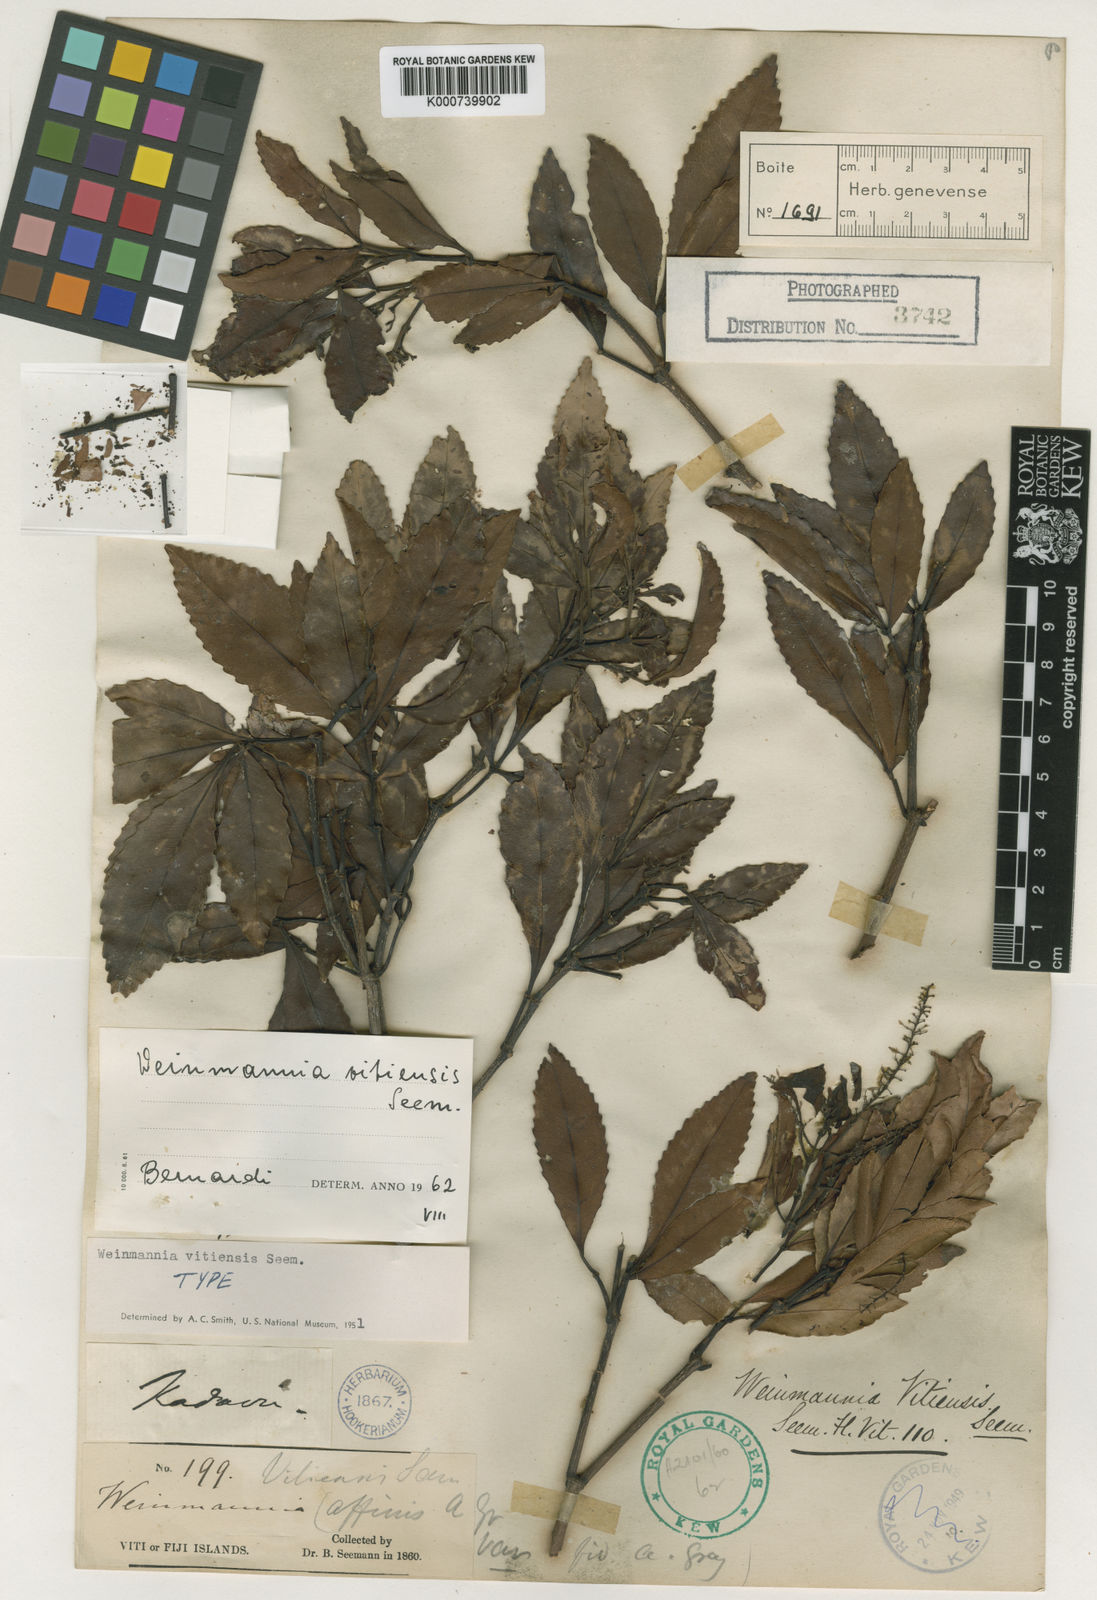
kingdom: Plantae
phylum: Tracheophyta
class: Magnoliopsida
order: Oxalidales
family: Cunoniaceae
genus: Pterophylla
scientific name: Pterophylla vitiensis
